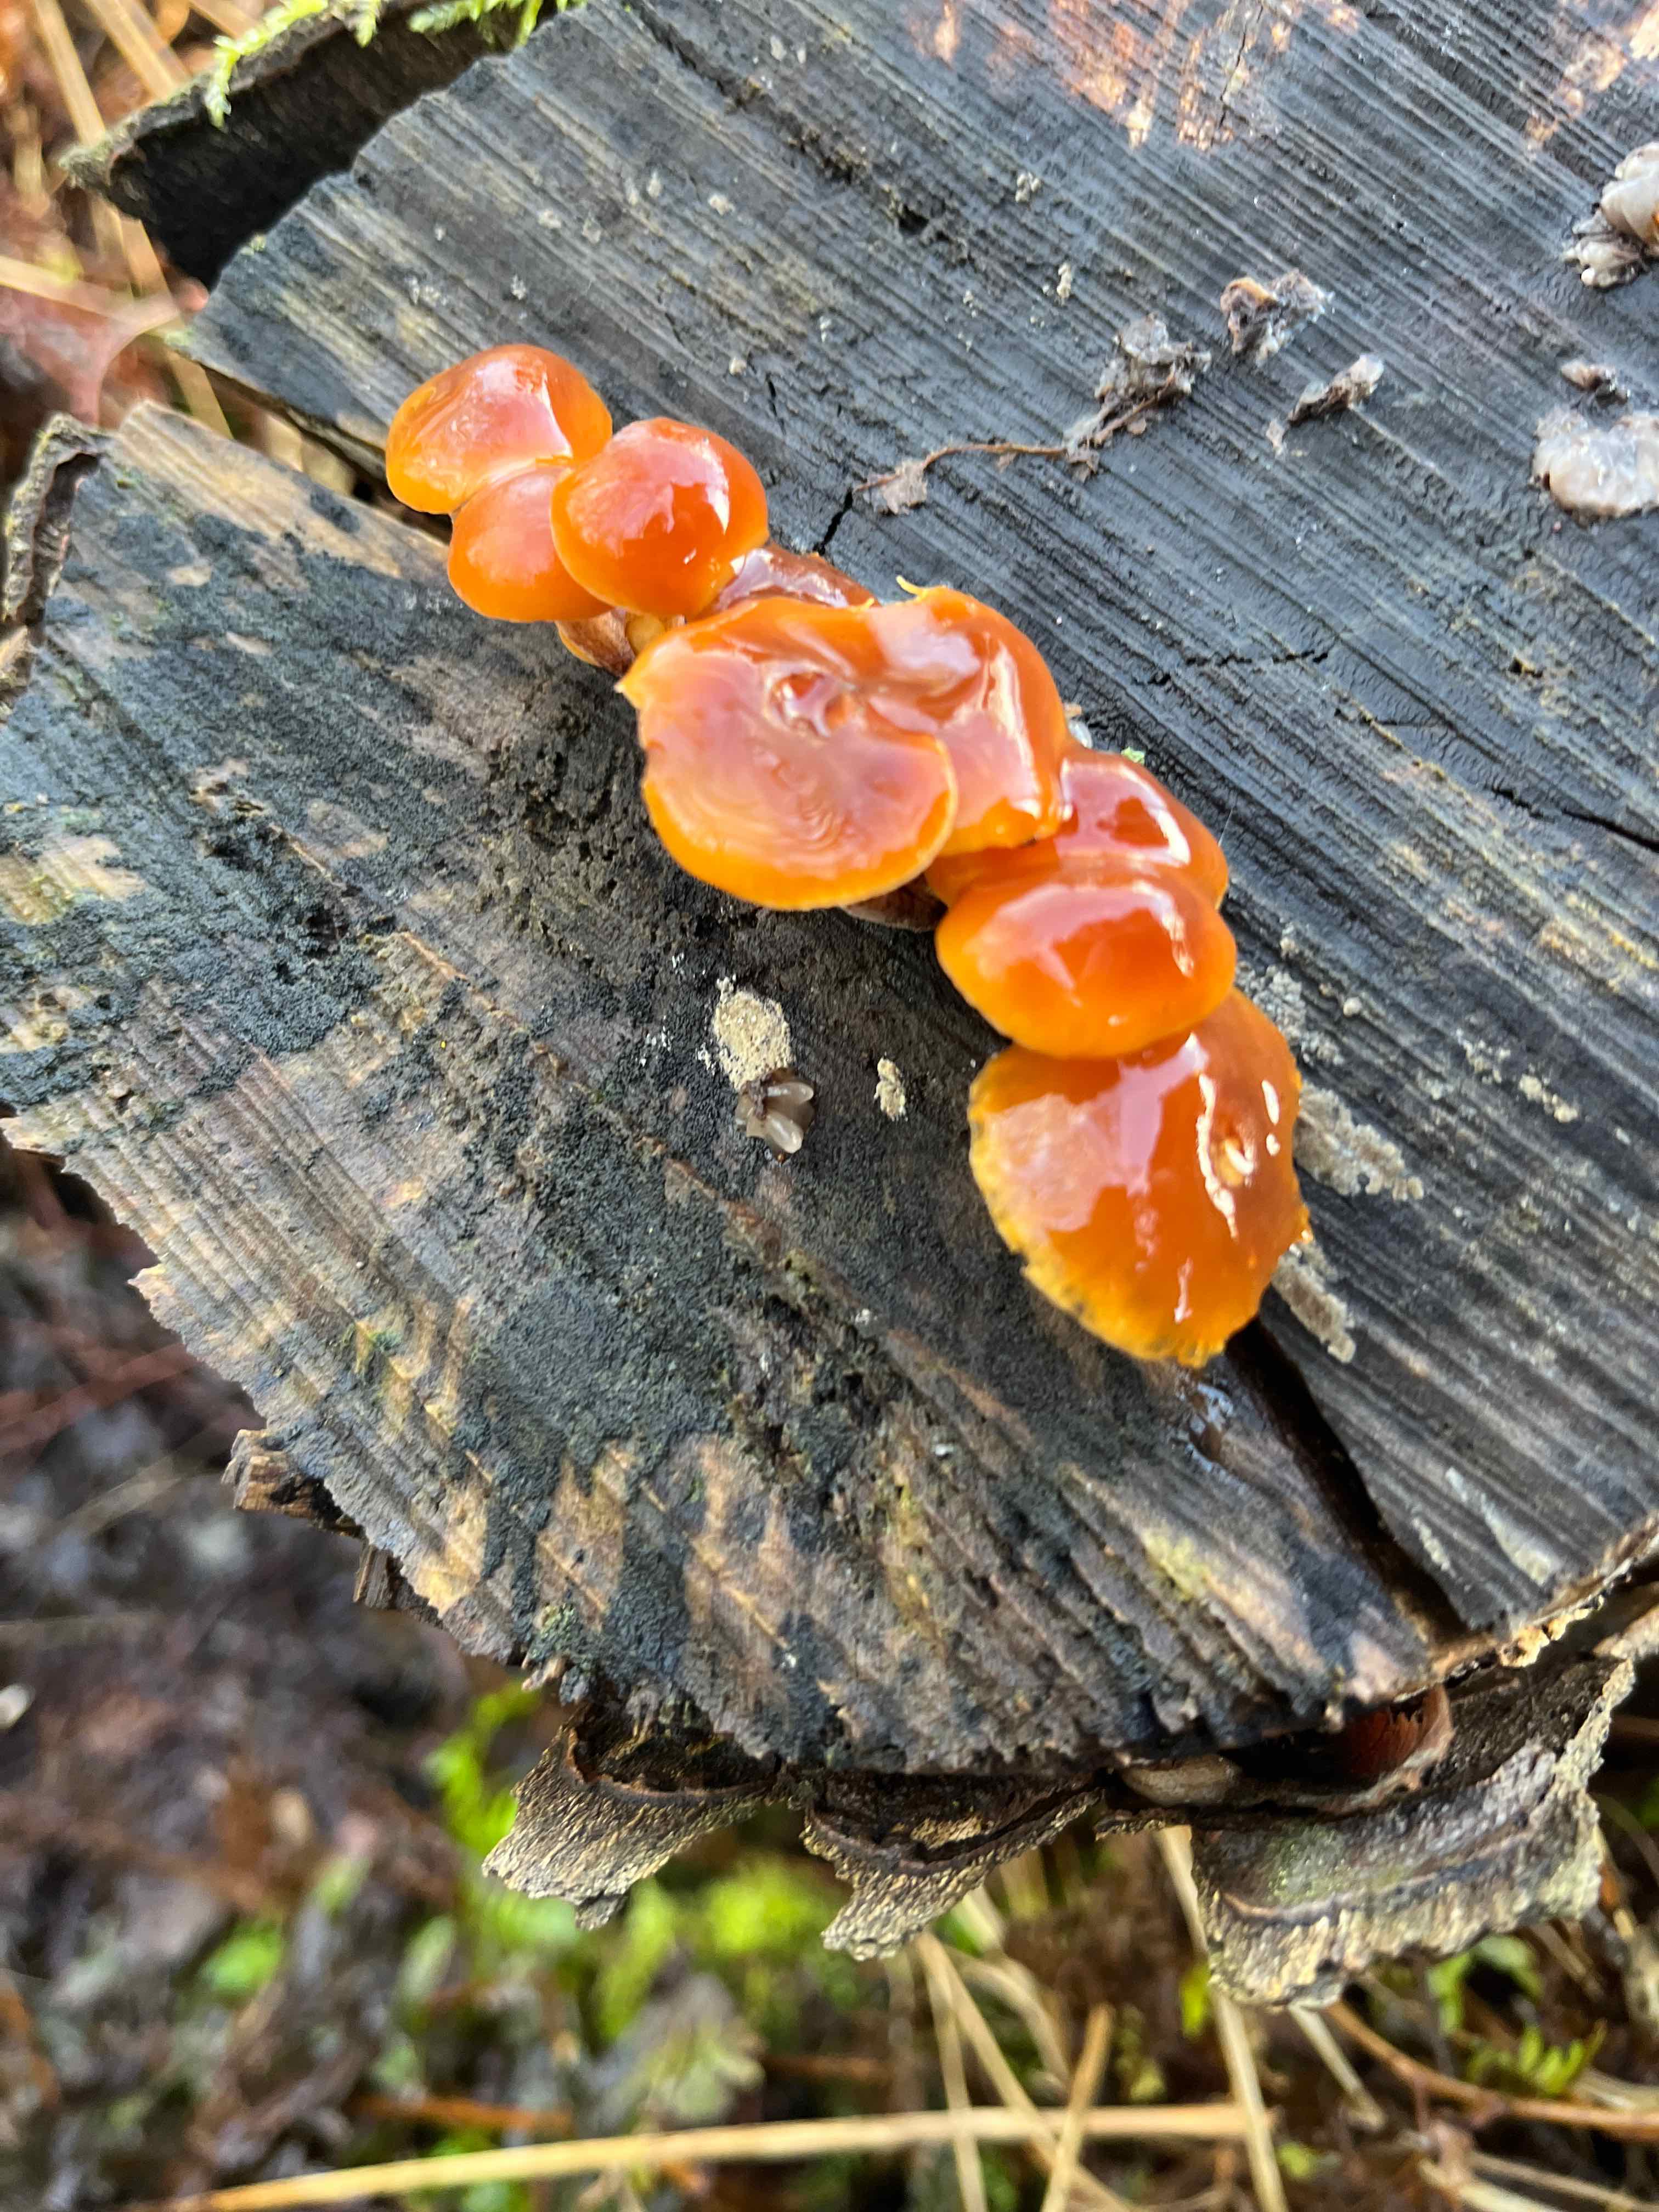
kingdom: Fungi
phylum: Basidiomycota
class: Agaricomycetes
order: Agaricales
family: Physalacriaceae
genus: Flammulina
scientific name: Flammulina
